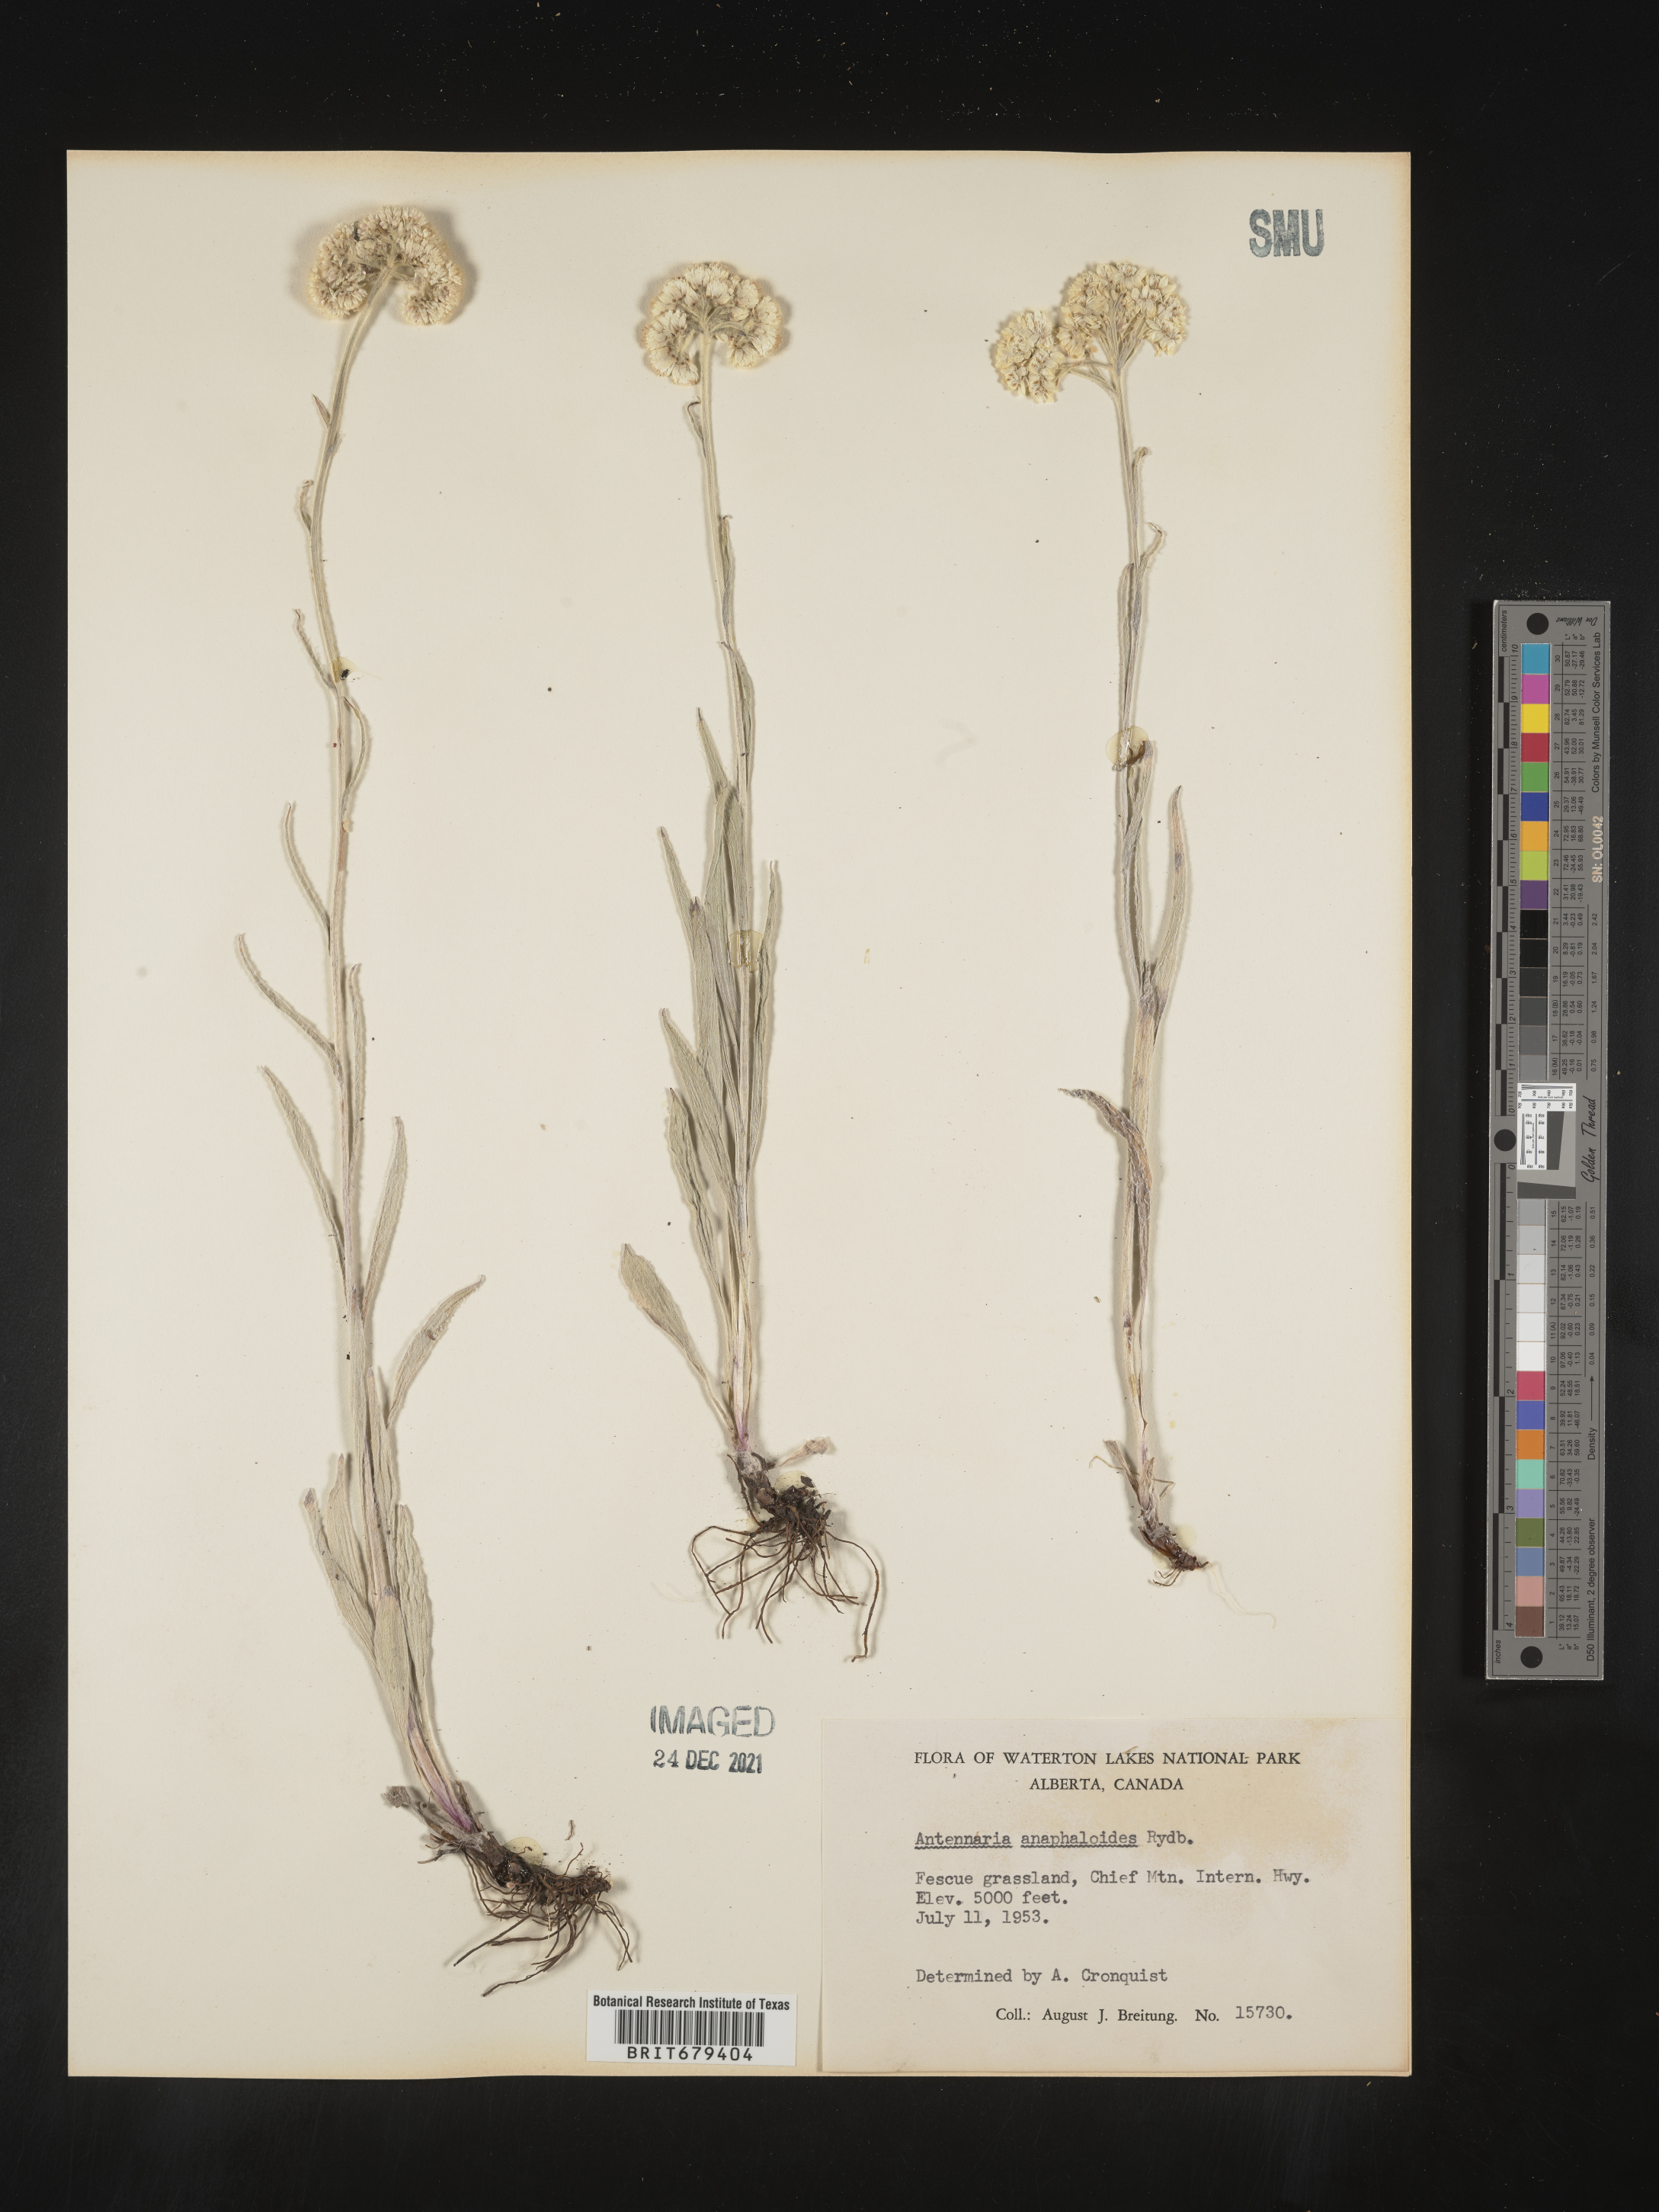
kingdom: Plantae
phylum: Tracheophyta
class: Magnoliopsida
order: Asterales
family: Asteraceae
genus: Antennaria
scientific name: Antennaria anaphaloides
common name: Tall pussytoes
